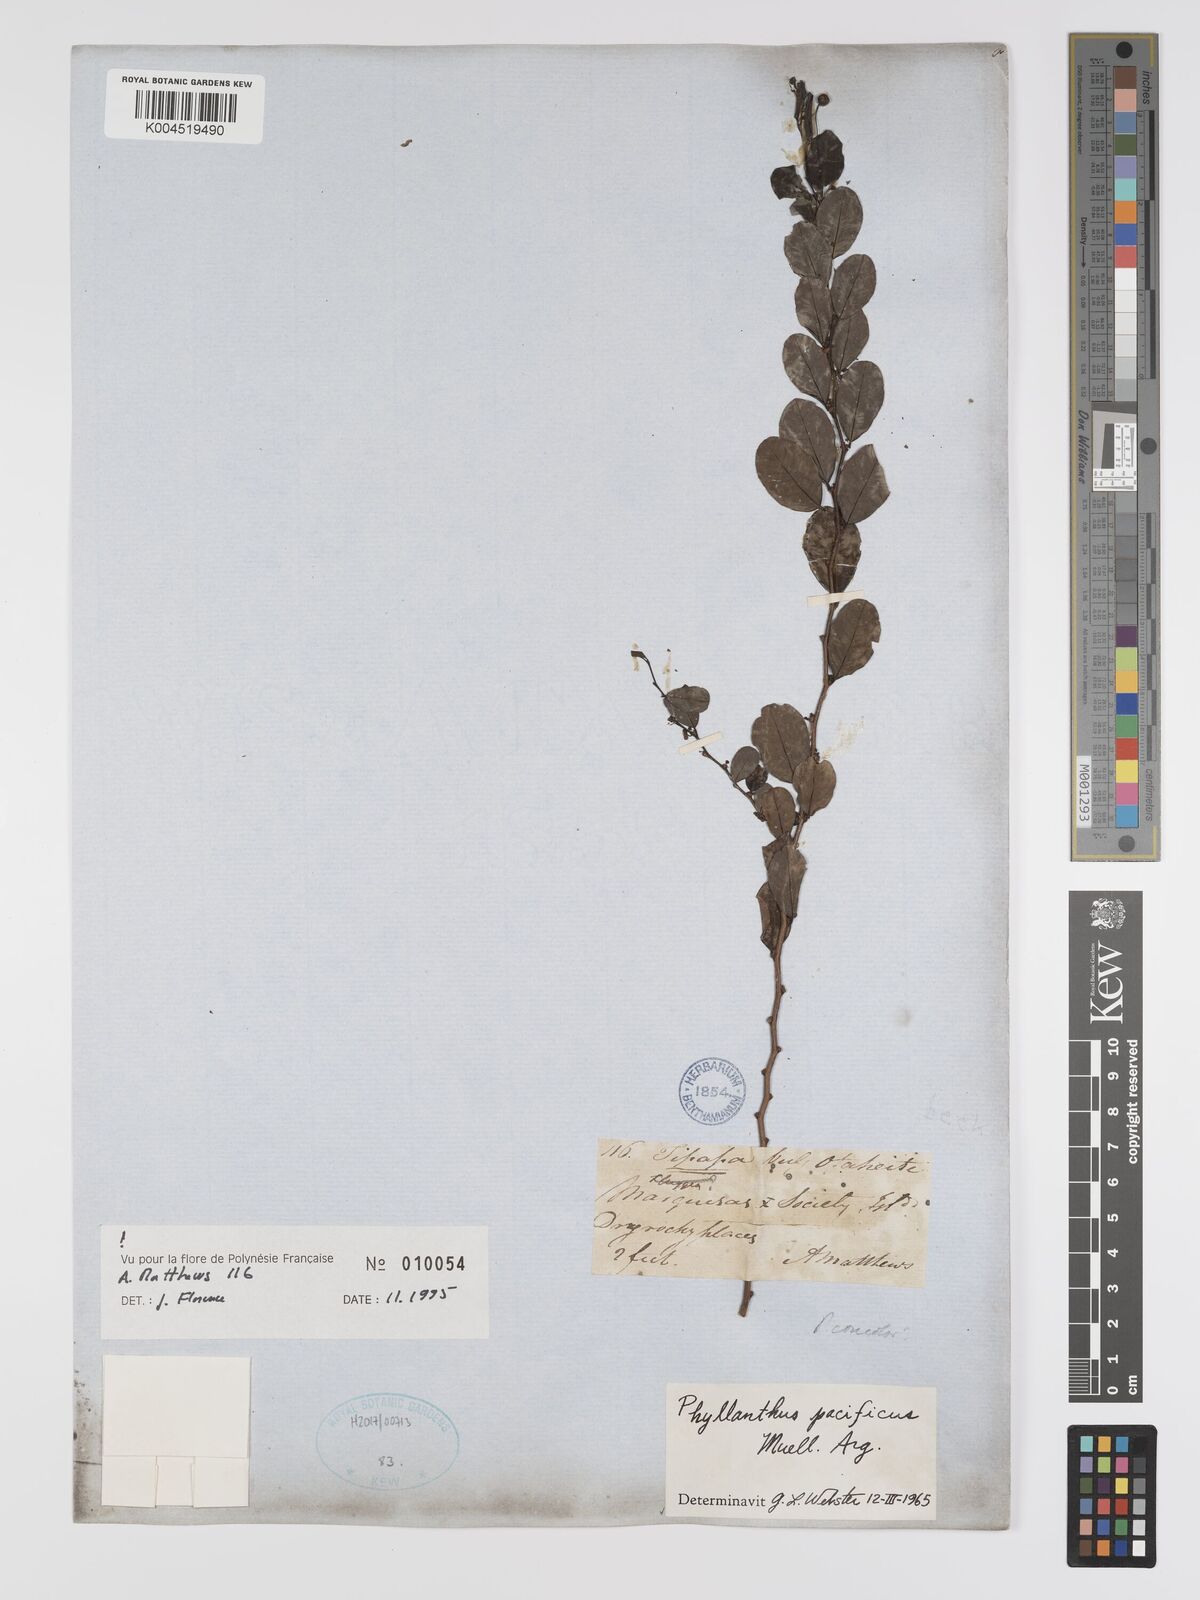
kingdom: Plantae
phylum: Tracheophyta
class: Magnoliopsida
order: Malpighiales
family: Phyllanthaceae
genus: Phyllanthus
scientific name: Phyllanthus pacificus
